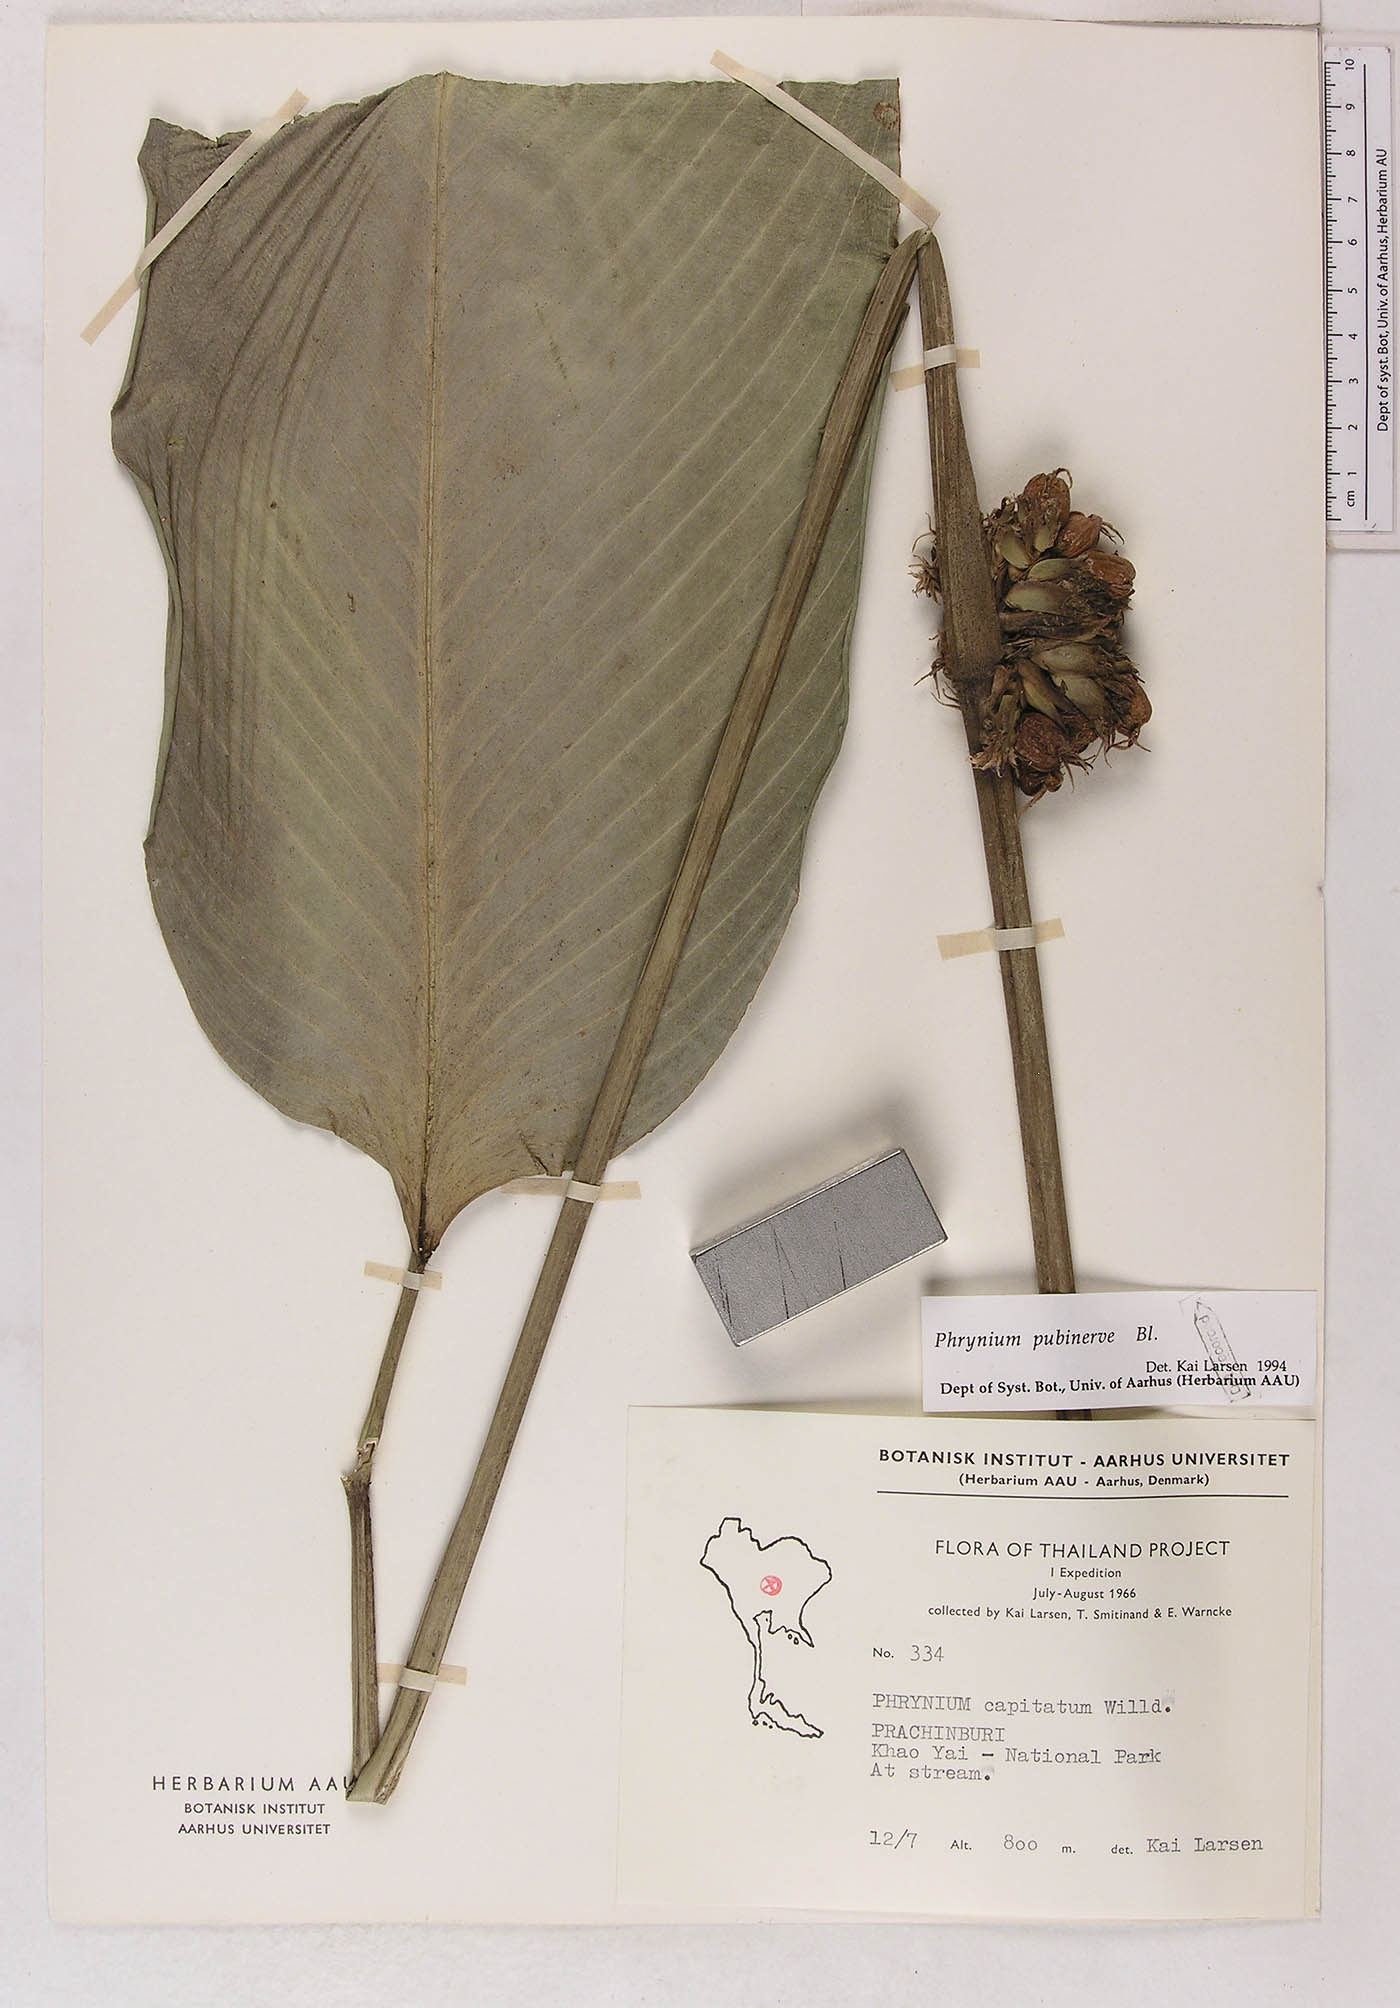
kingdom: Plantae
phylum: Tracheophyta
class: Liliopsida
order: Zingiberales
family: Marantaceae
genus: Phrynium
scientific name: Phrynium pubinerve
